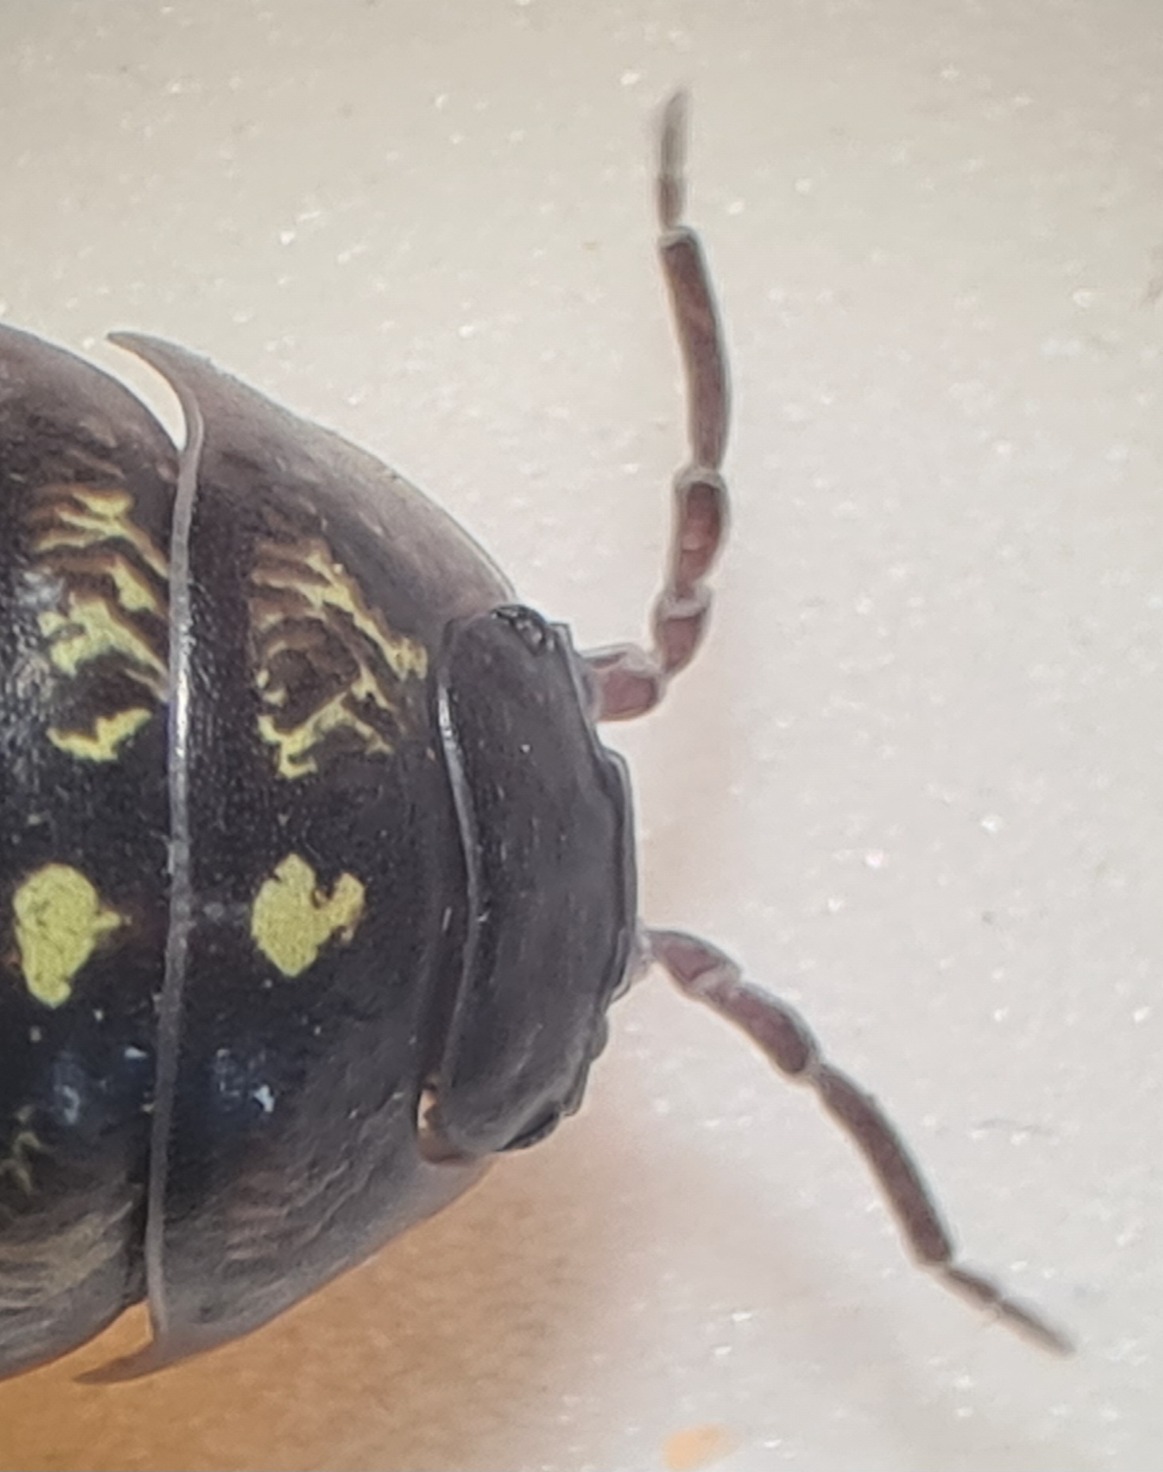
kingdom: Animalia
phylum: Arthropoda
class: Malacostraca
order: Isopoda
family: Armadillidiidae
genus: Armadillidium
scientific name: Armadillidium vulgare
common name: Almindelig kuglebænkebider
